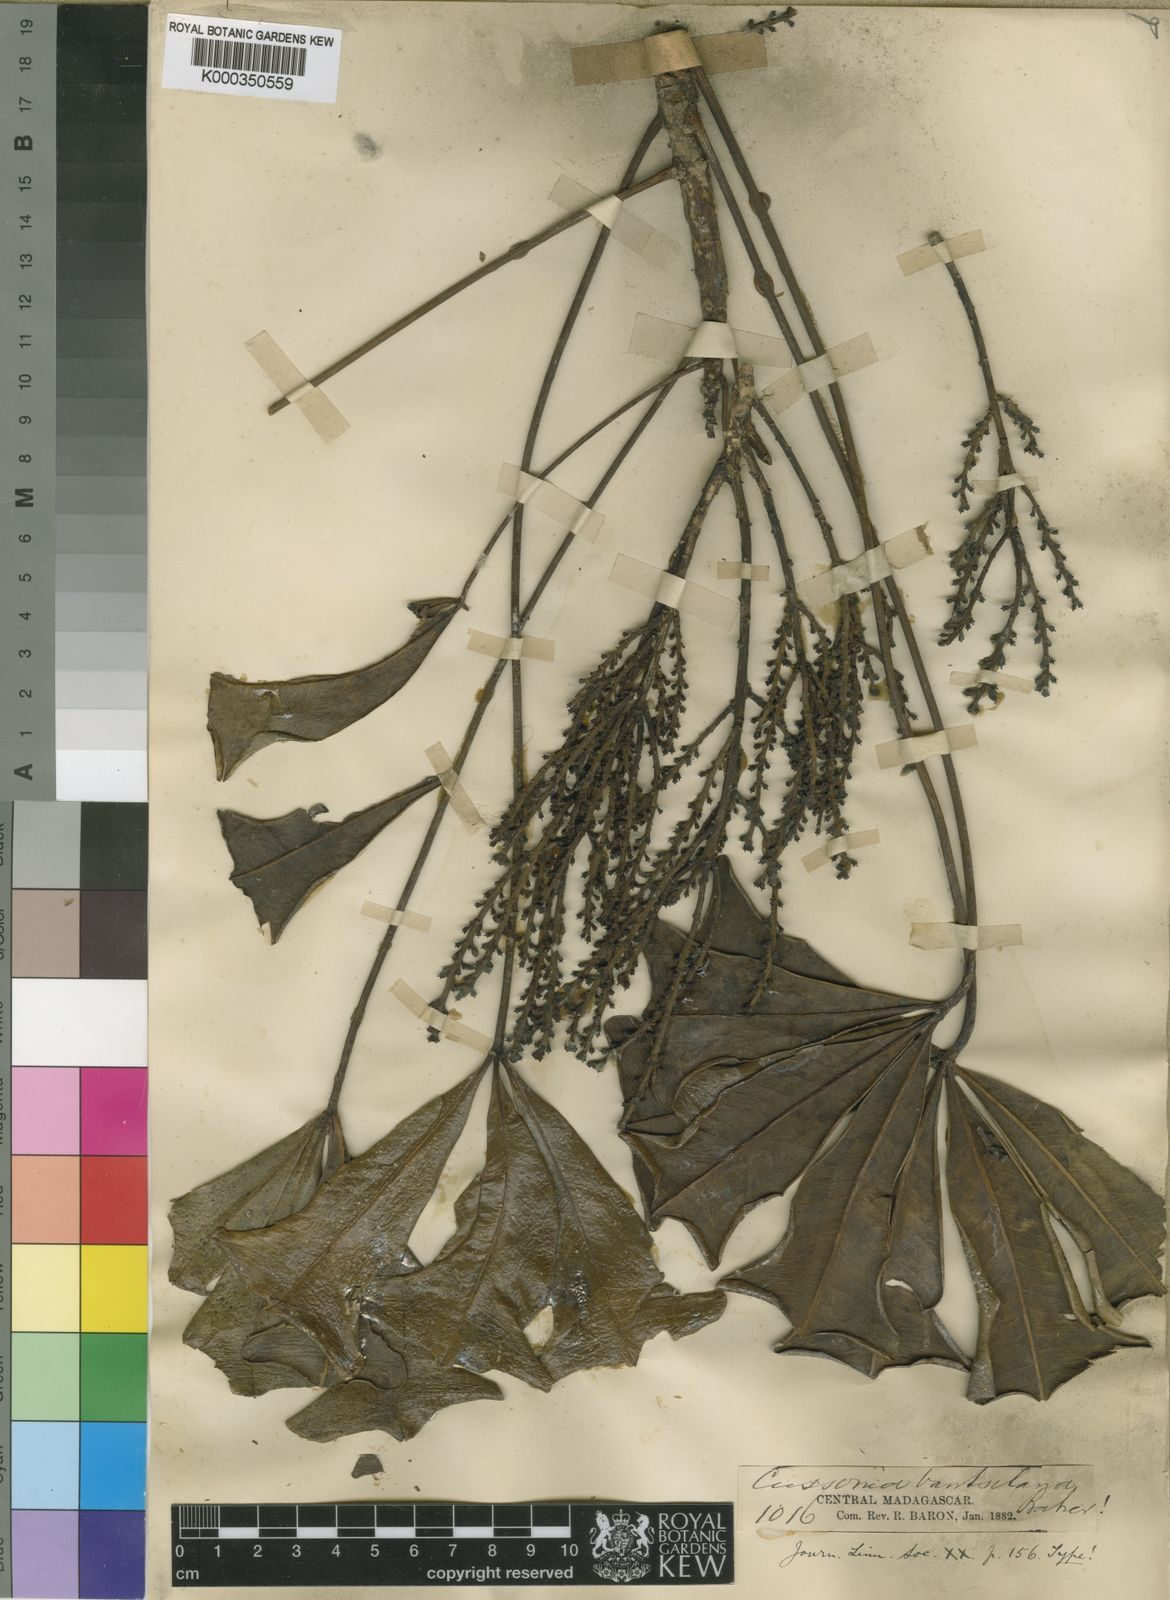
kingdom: Plantae
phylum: Tracheophyta
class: Magnoliopsida
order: Apiales
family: Araliaceae
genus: Neocussonia
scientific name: Neocussonia vantsilana
